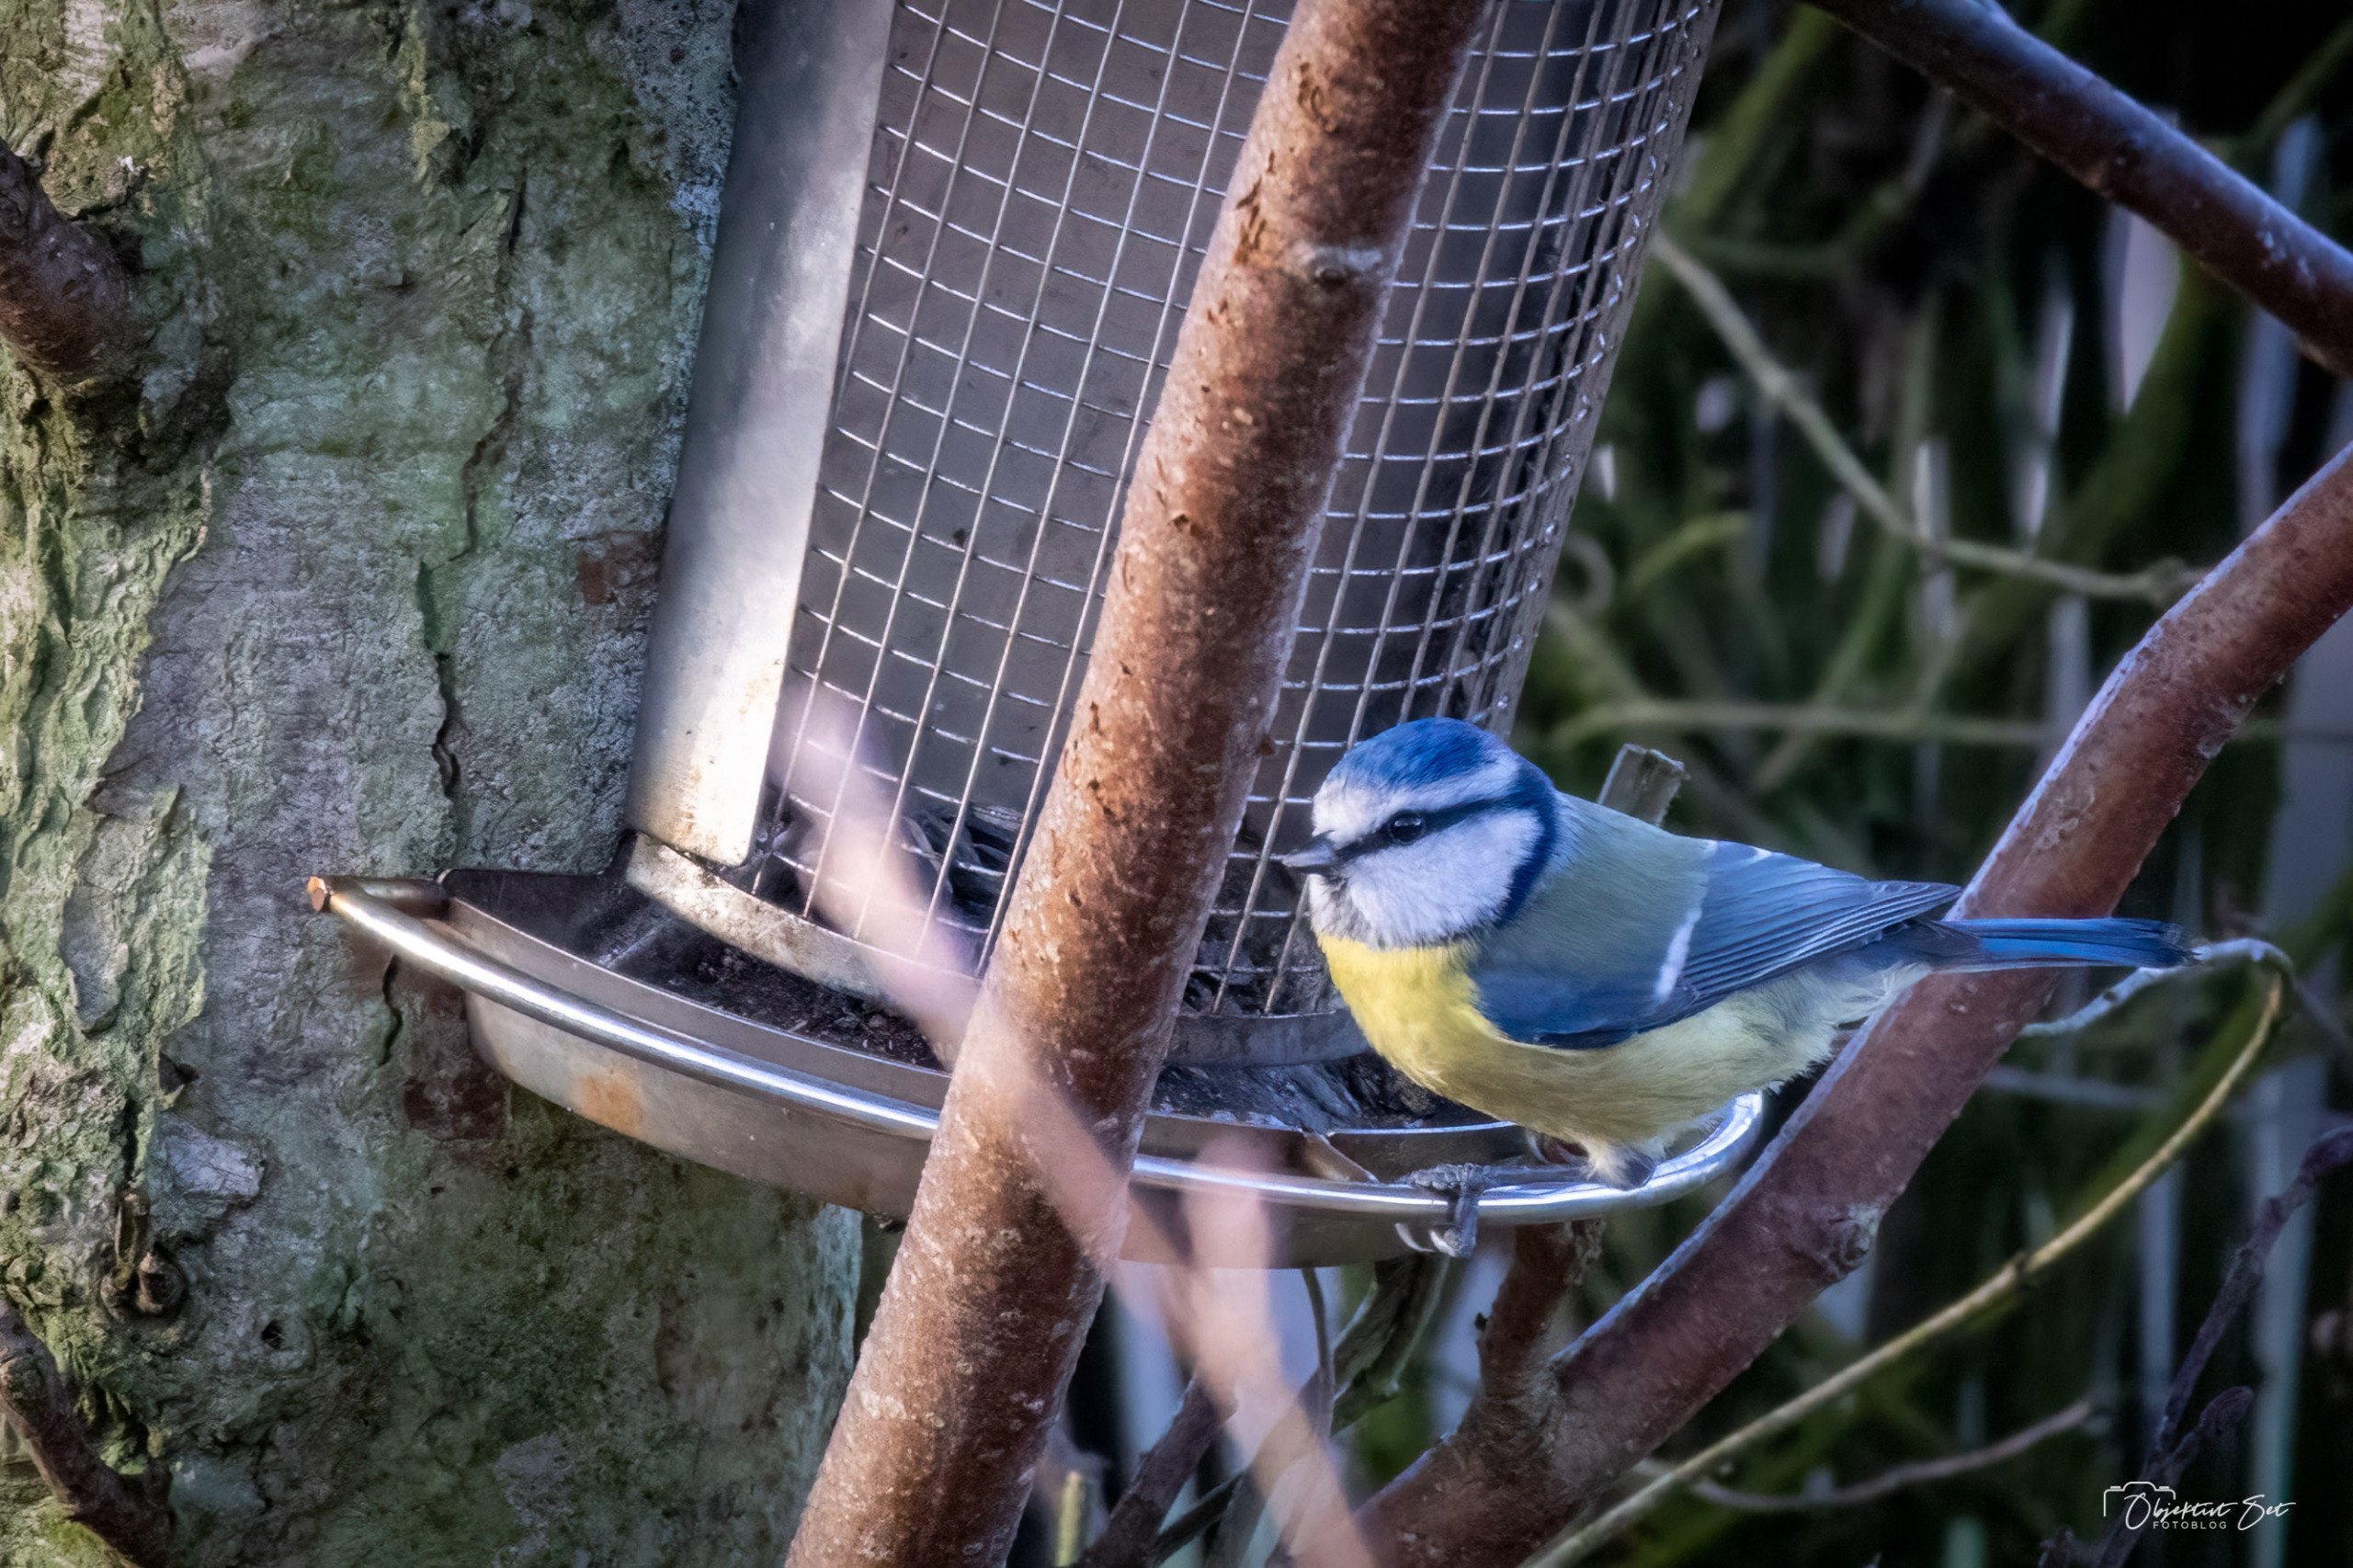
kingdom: Animalia
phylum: Chordata
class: Aves
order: Passeriformes
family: Paridae
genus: Cyanistes
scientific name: Cyanistes caeruleus
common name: Blåmejse
